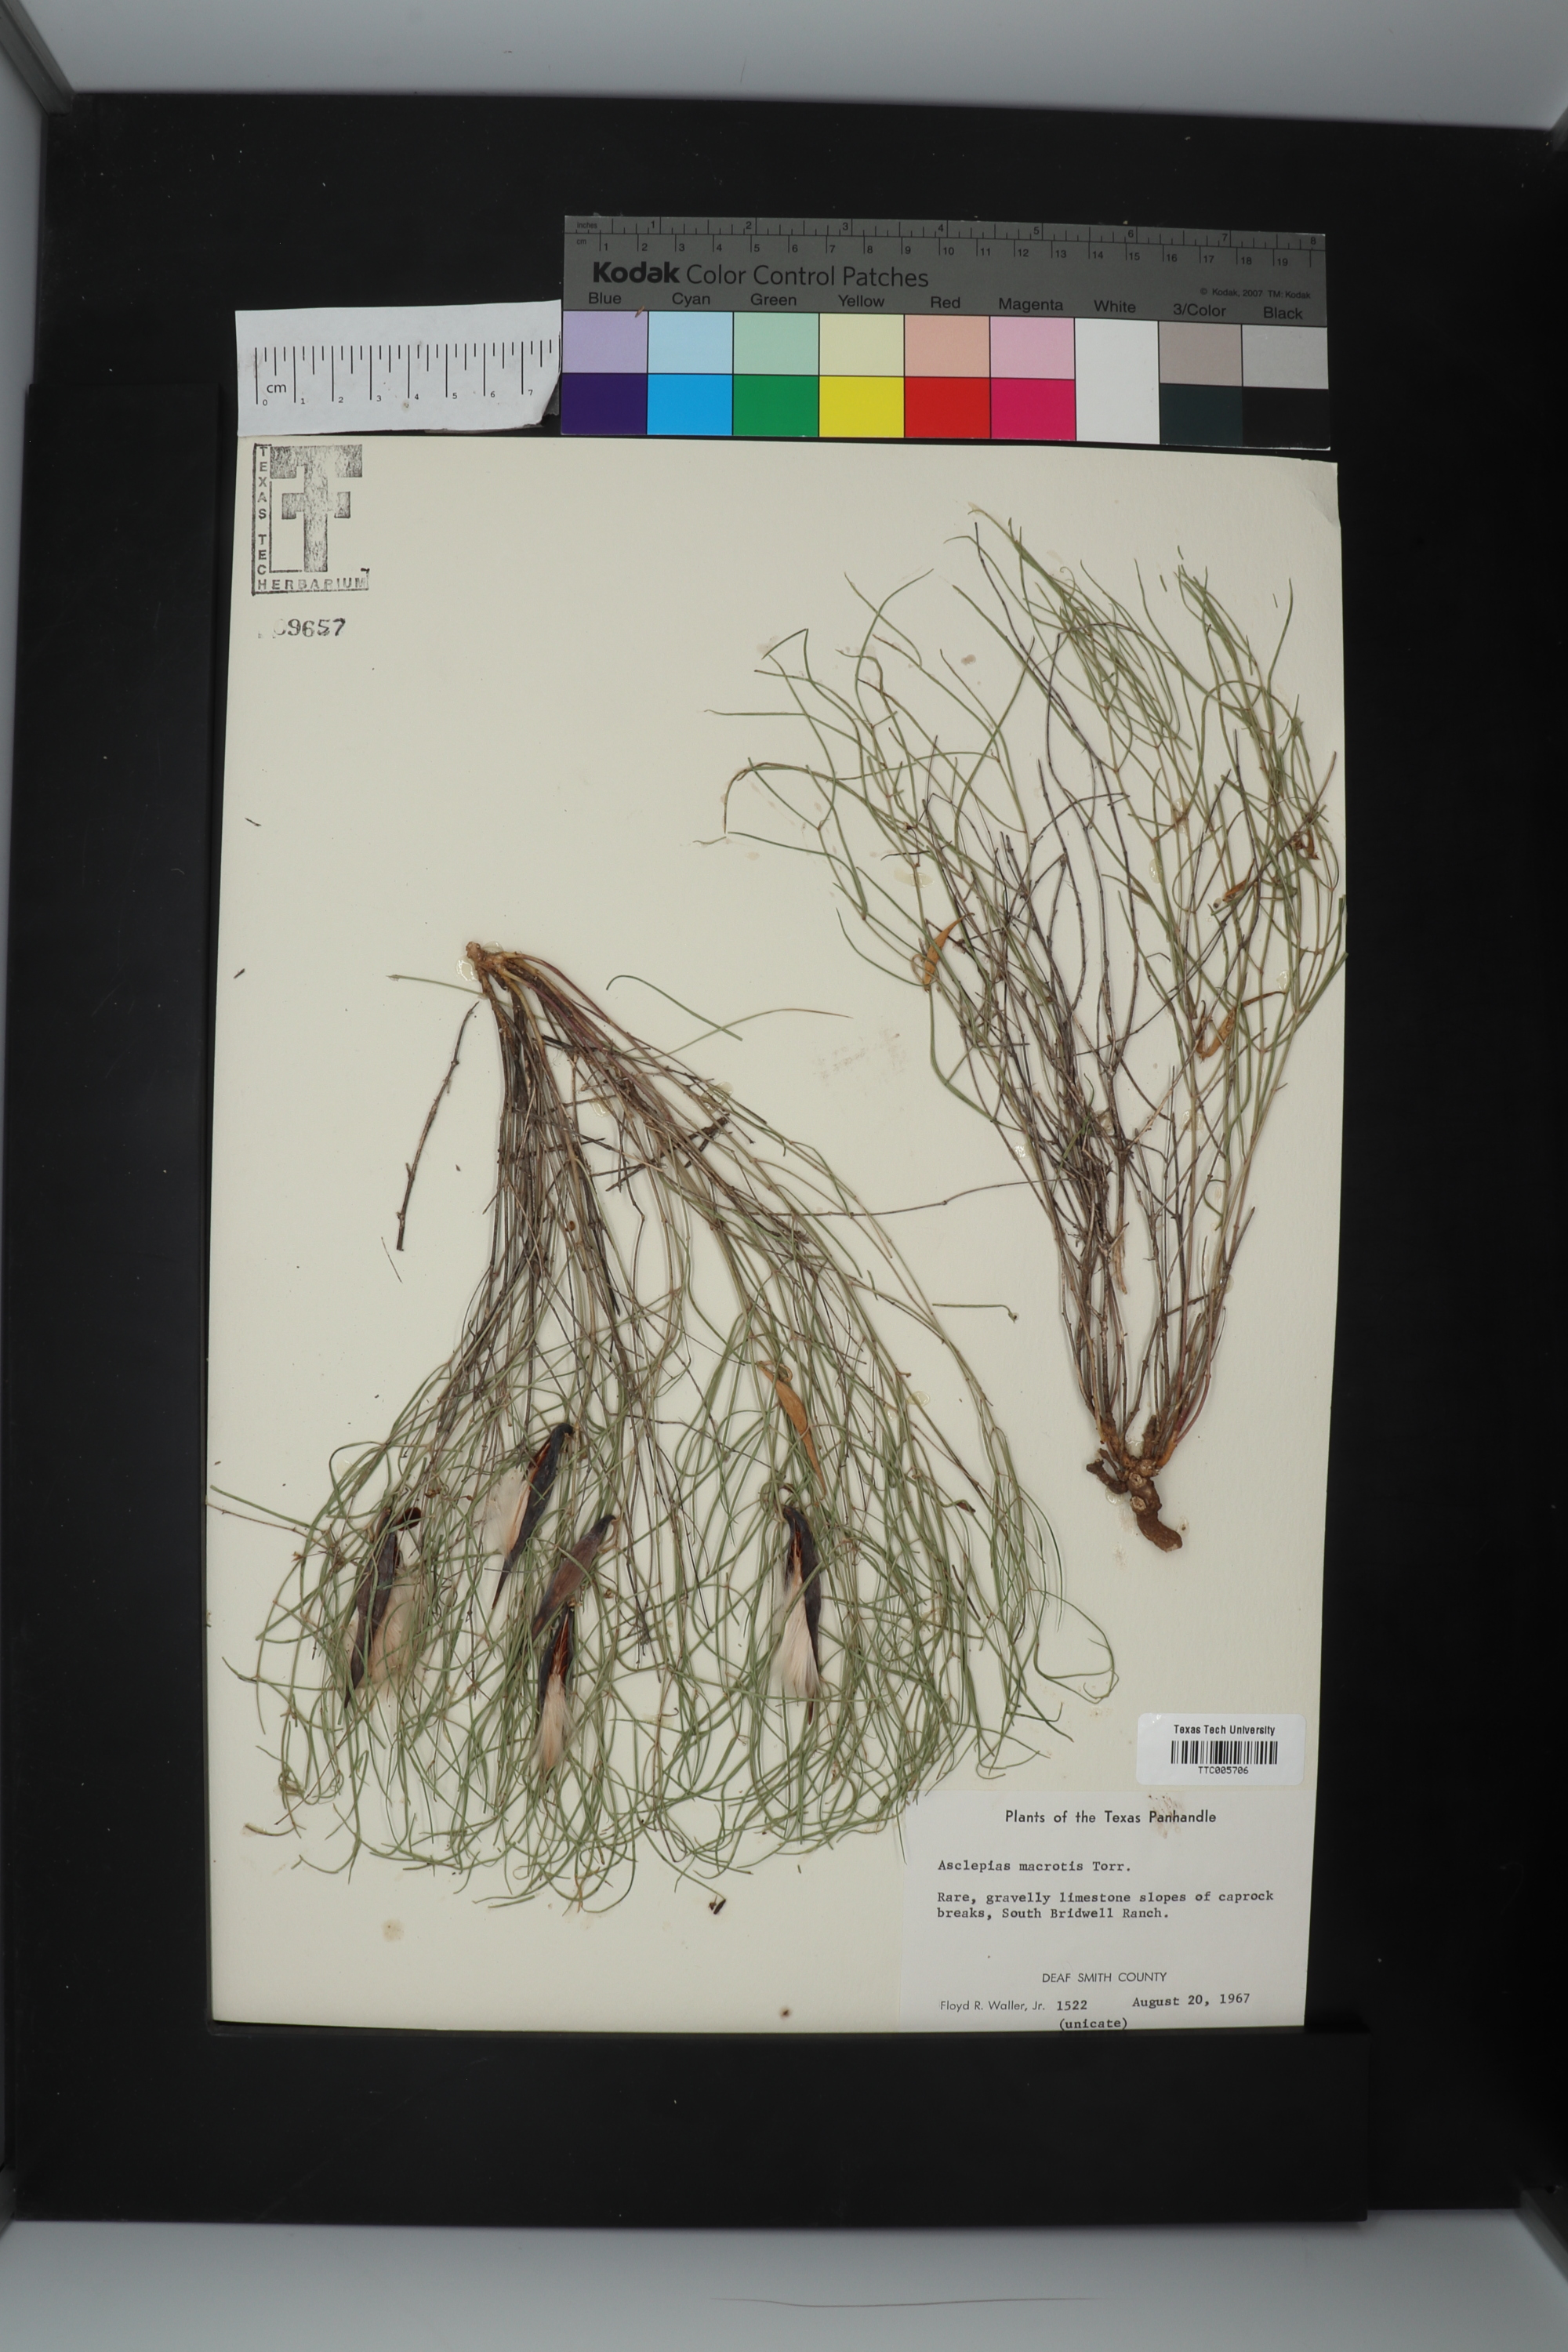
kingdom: Plantae
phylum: Tracheophyta
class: Magnoliopsida
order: Gentianales
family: Apocynaceae
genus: Asclepias
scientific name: Asclepias macrotis
